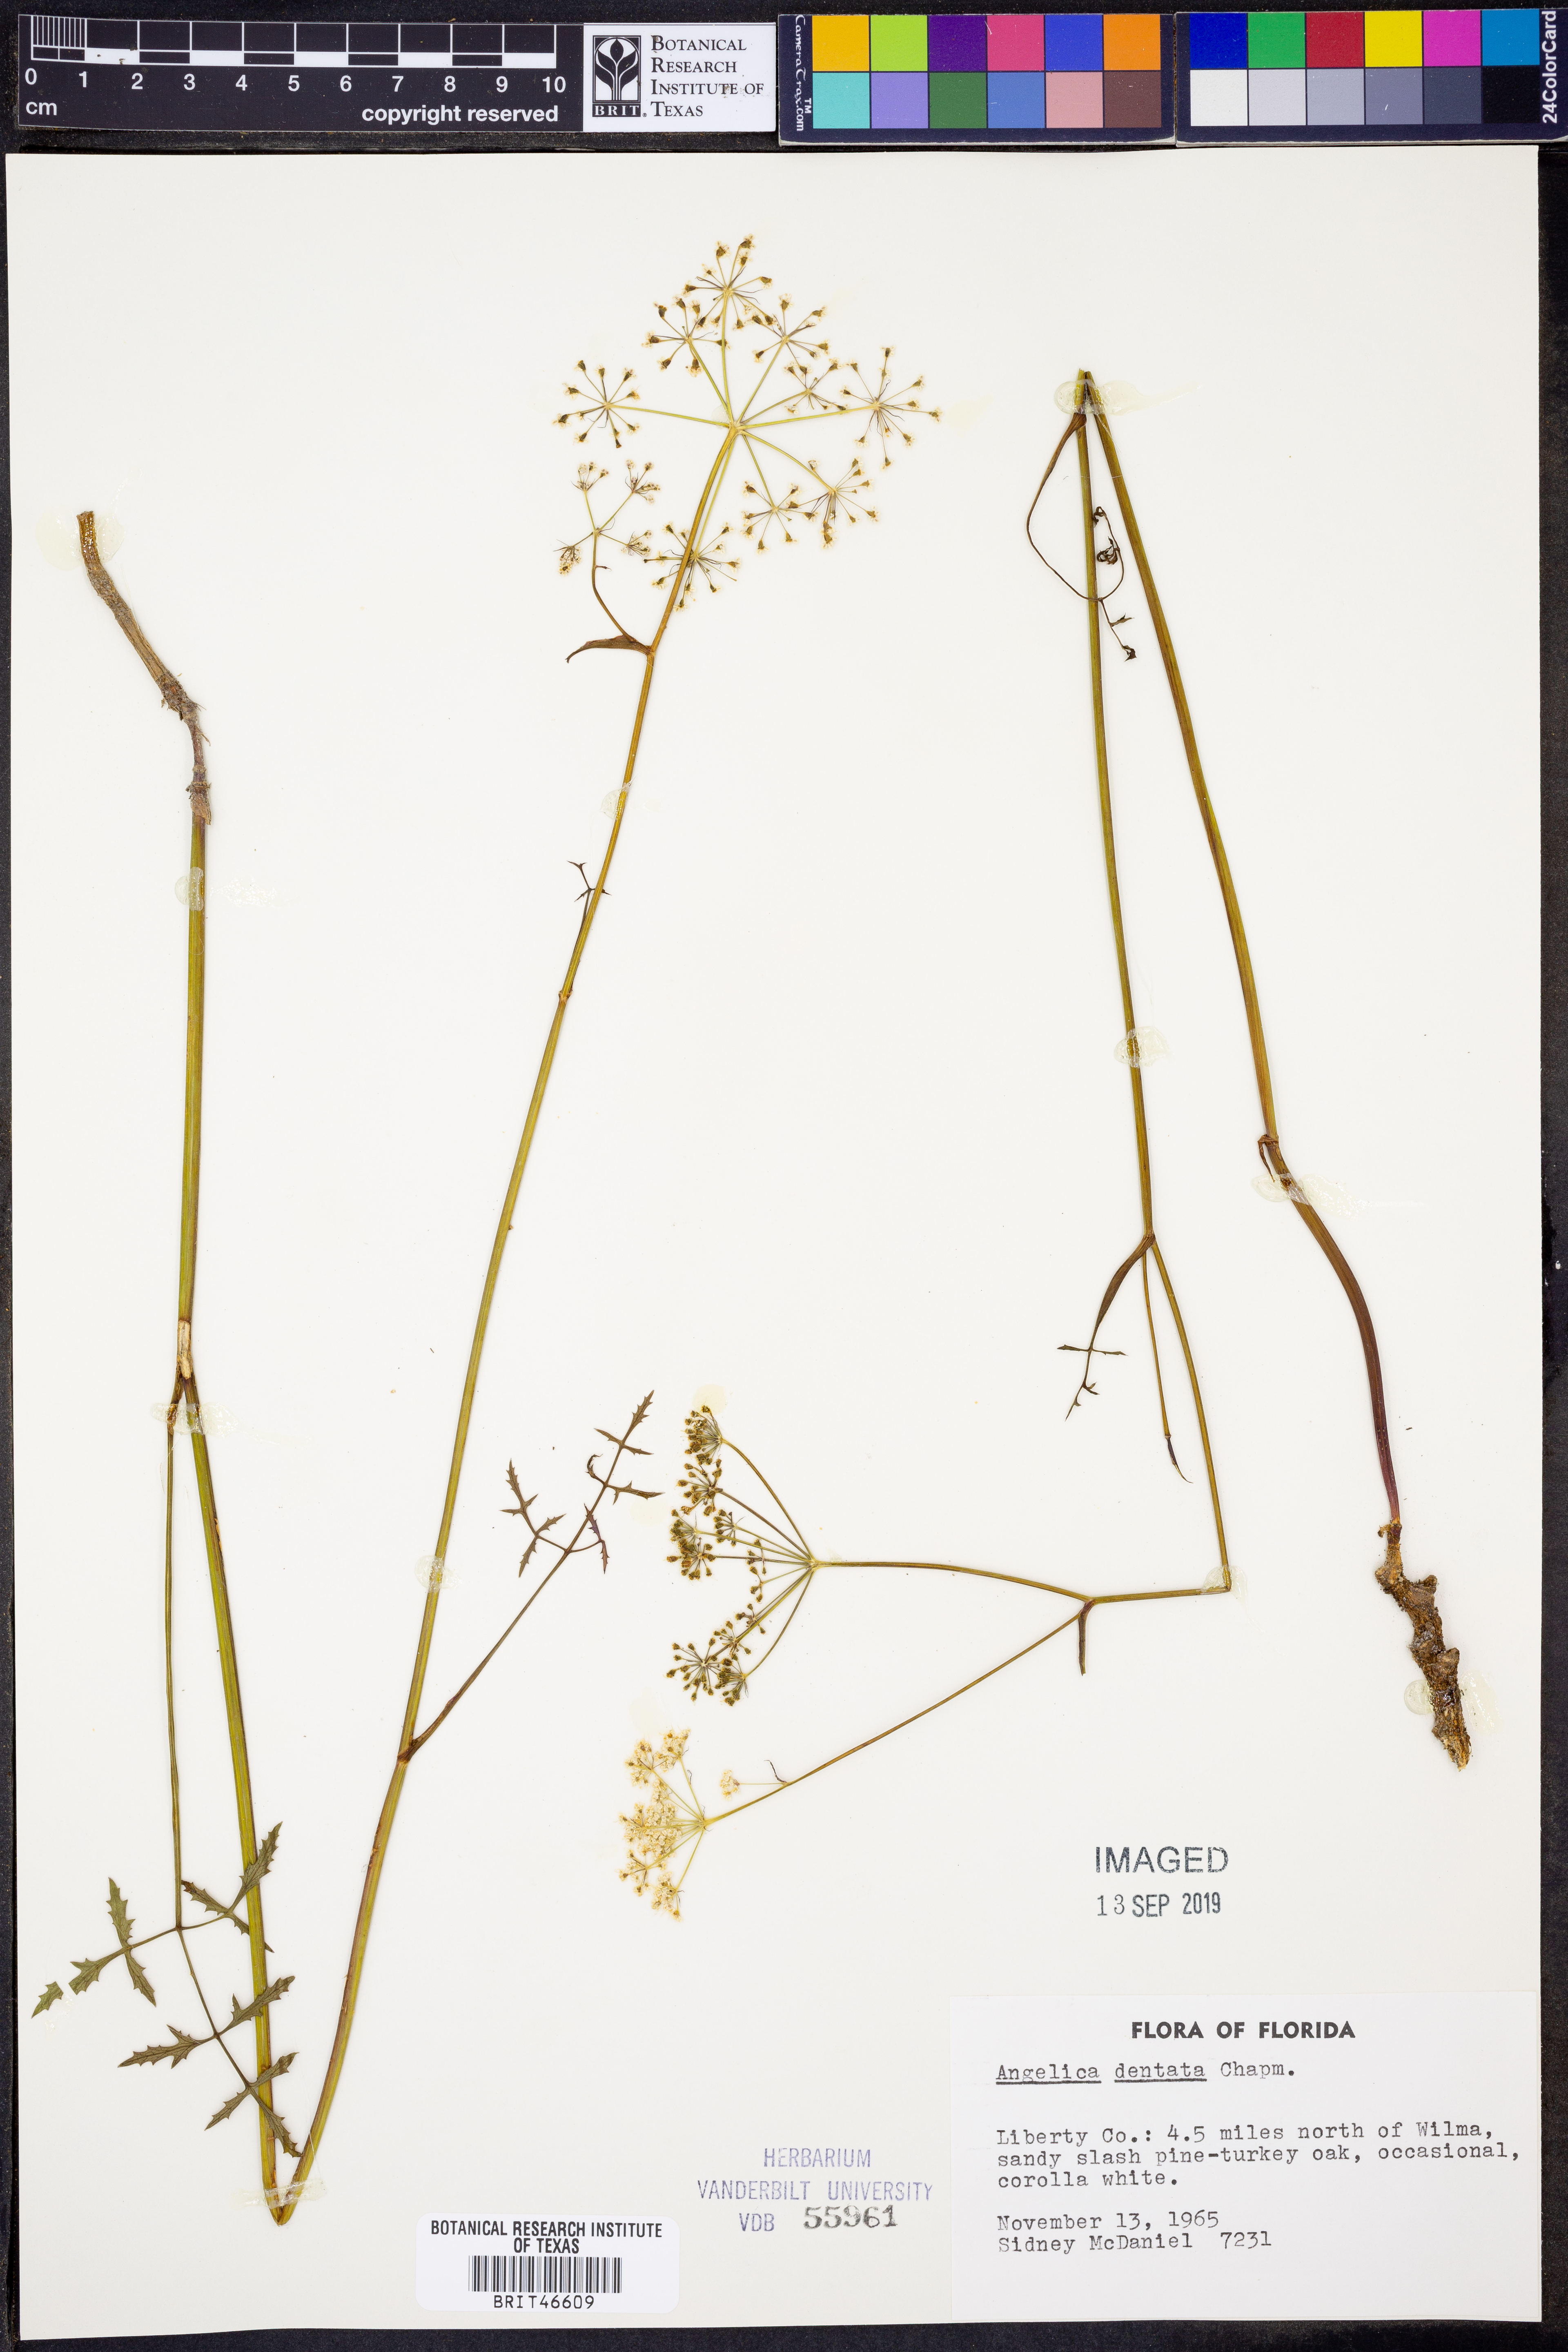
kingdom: Plantae
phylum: Tracheophyta
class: Magnoliopsida
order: Apiales
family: Apiaceae
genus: Angelica
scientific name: Angelica venenosa
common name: Hairy angelica
